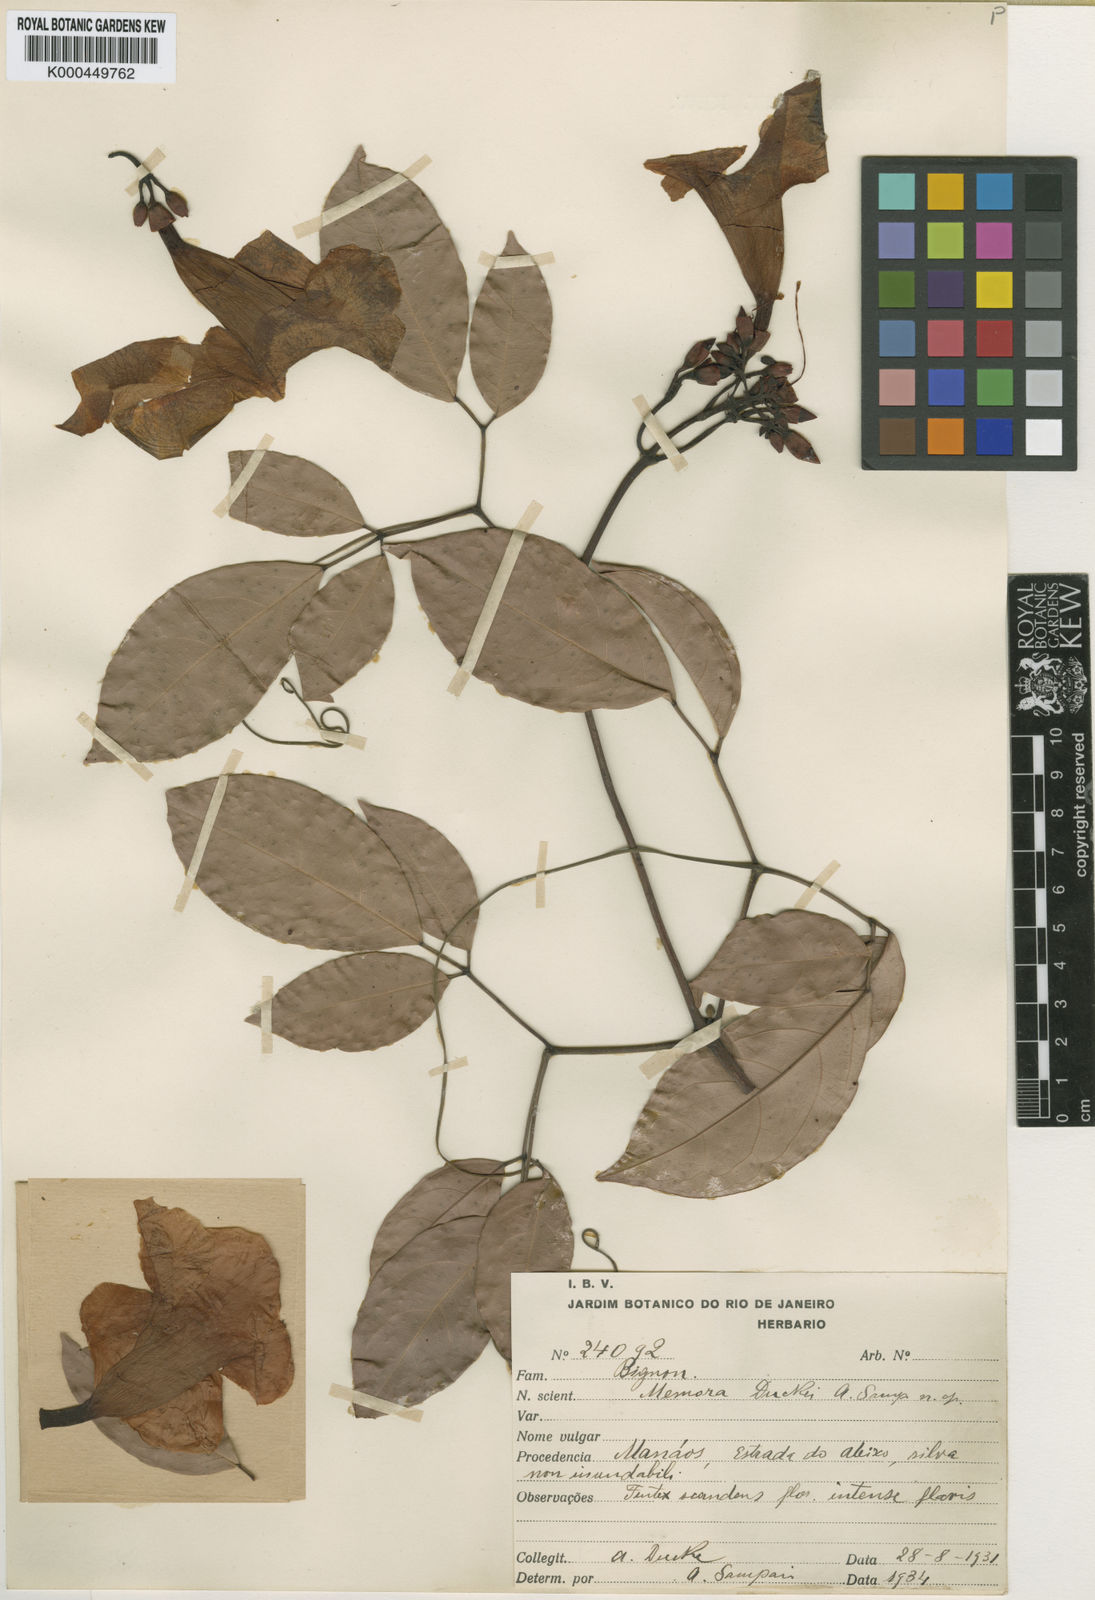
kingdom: Plantae
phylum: Tracheophyta
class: Magnoliopsida
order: Lamiales
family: Bignoniaceae
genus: Adenocalymma
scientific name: Adenocalymma neoflavidum
